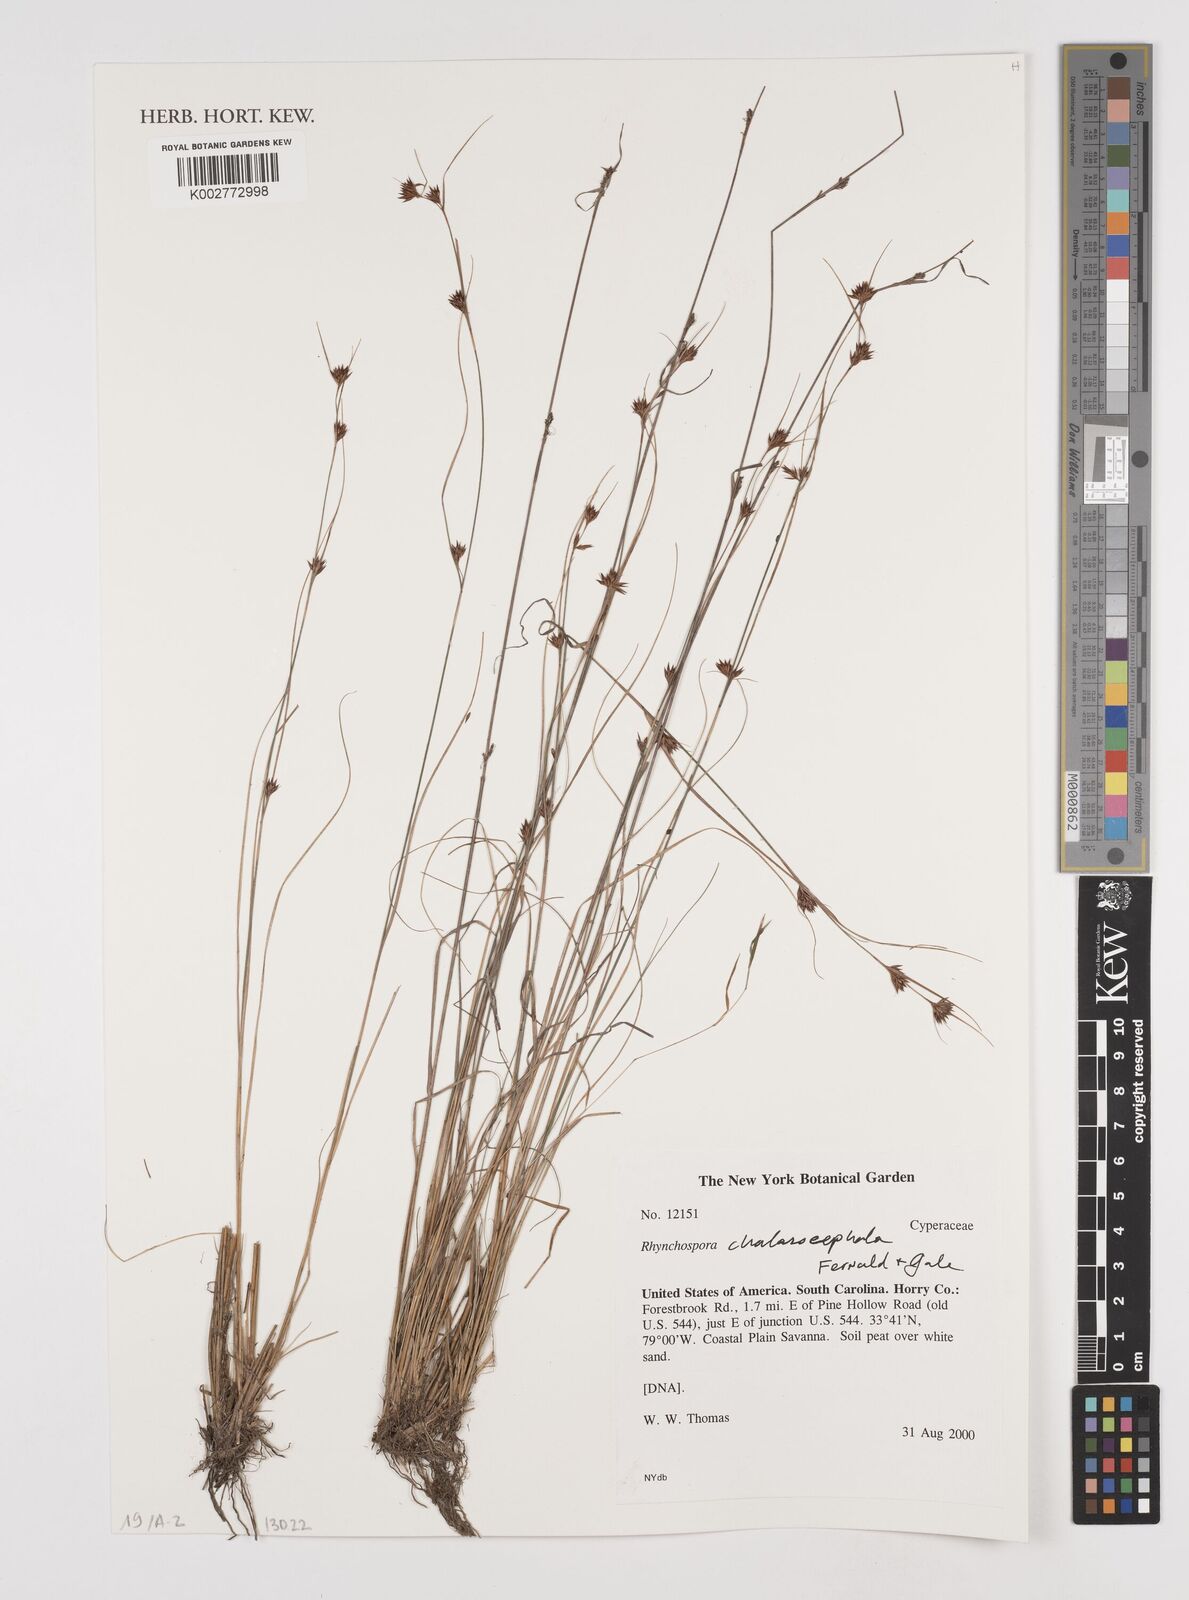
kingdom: Plantae
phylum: Tracheophyta
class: Liliopsida
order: Poales
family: Cyperaceae
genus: Rhynchospora
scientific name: Rhynchospora chalarocephala
